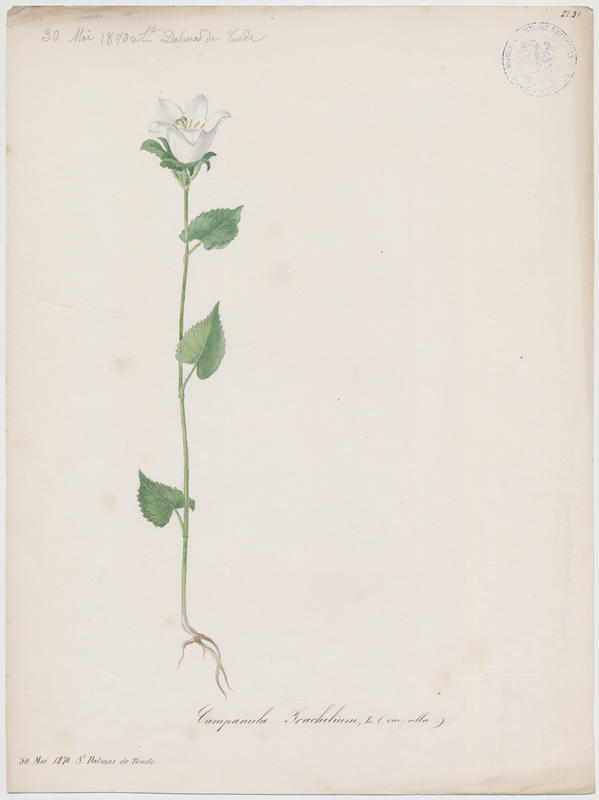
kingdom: Plantae
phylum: Tracheophyta
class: Magnoliopsida
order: Asterales
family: Campanulaceae
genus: Campanula
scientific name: Campanula trachelium
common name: Nettle-leaved bellflower
